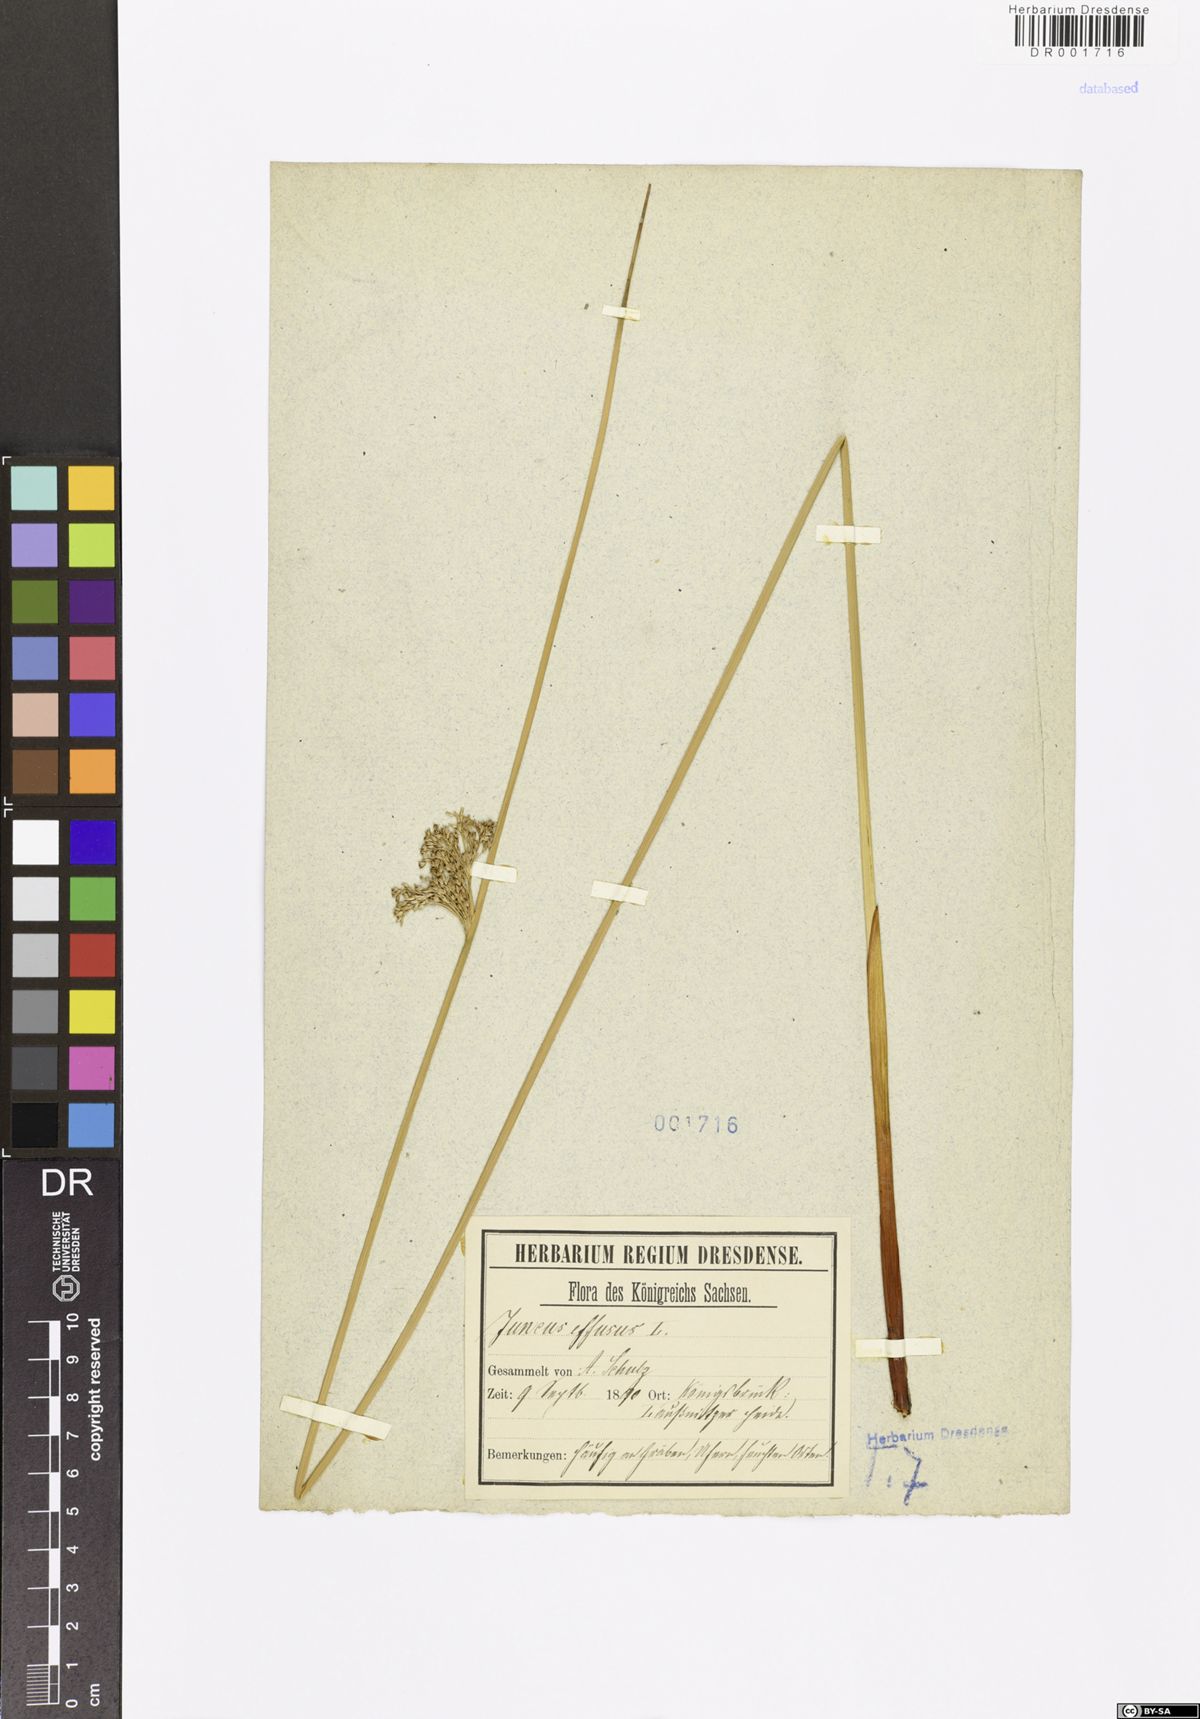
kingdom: Plantae
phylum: Tracheophyta
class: Liliopsida
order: Poales
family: Juncaceae
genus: Juncus
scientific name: Juncus effusus
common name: Soft rush
